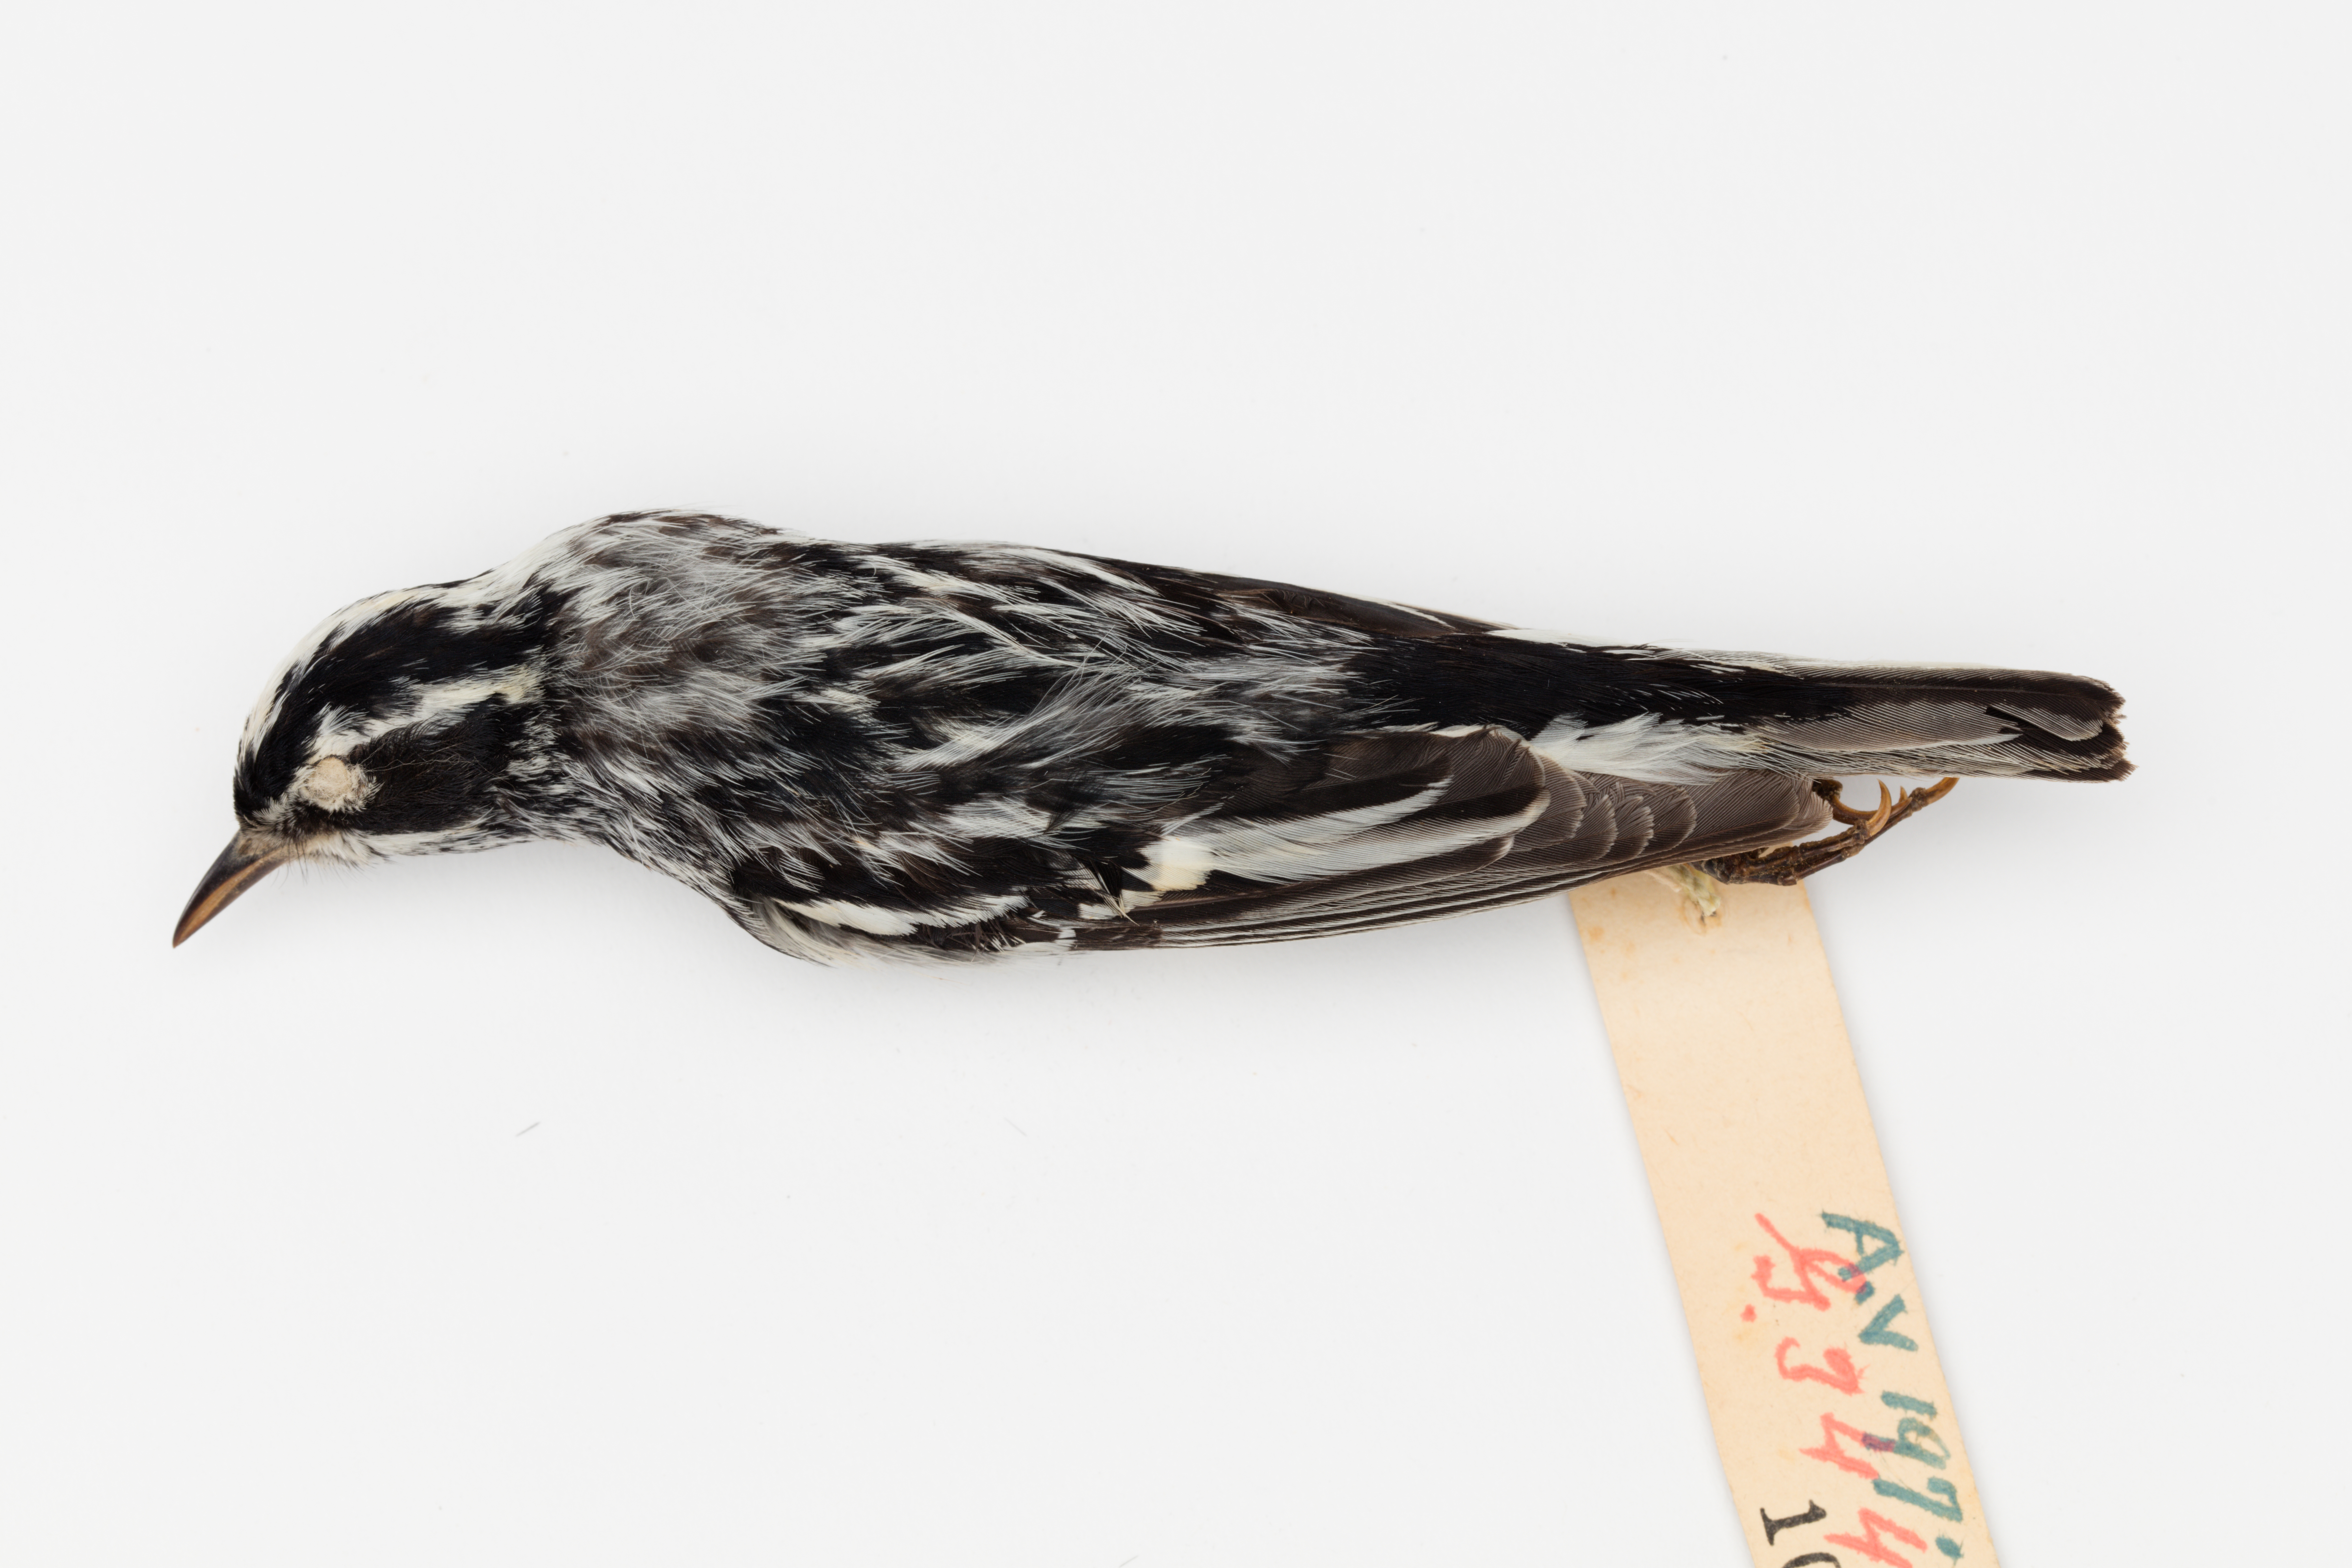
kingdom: Animalia
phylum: Chordata
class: Aves
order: Passeriformes
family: Parulidae
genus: Mniotilta
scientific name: Mniotilta varia
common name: Black-and-white warbler
